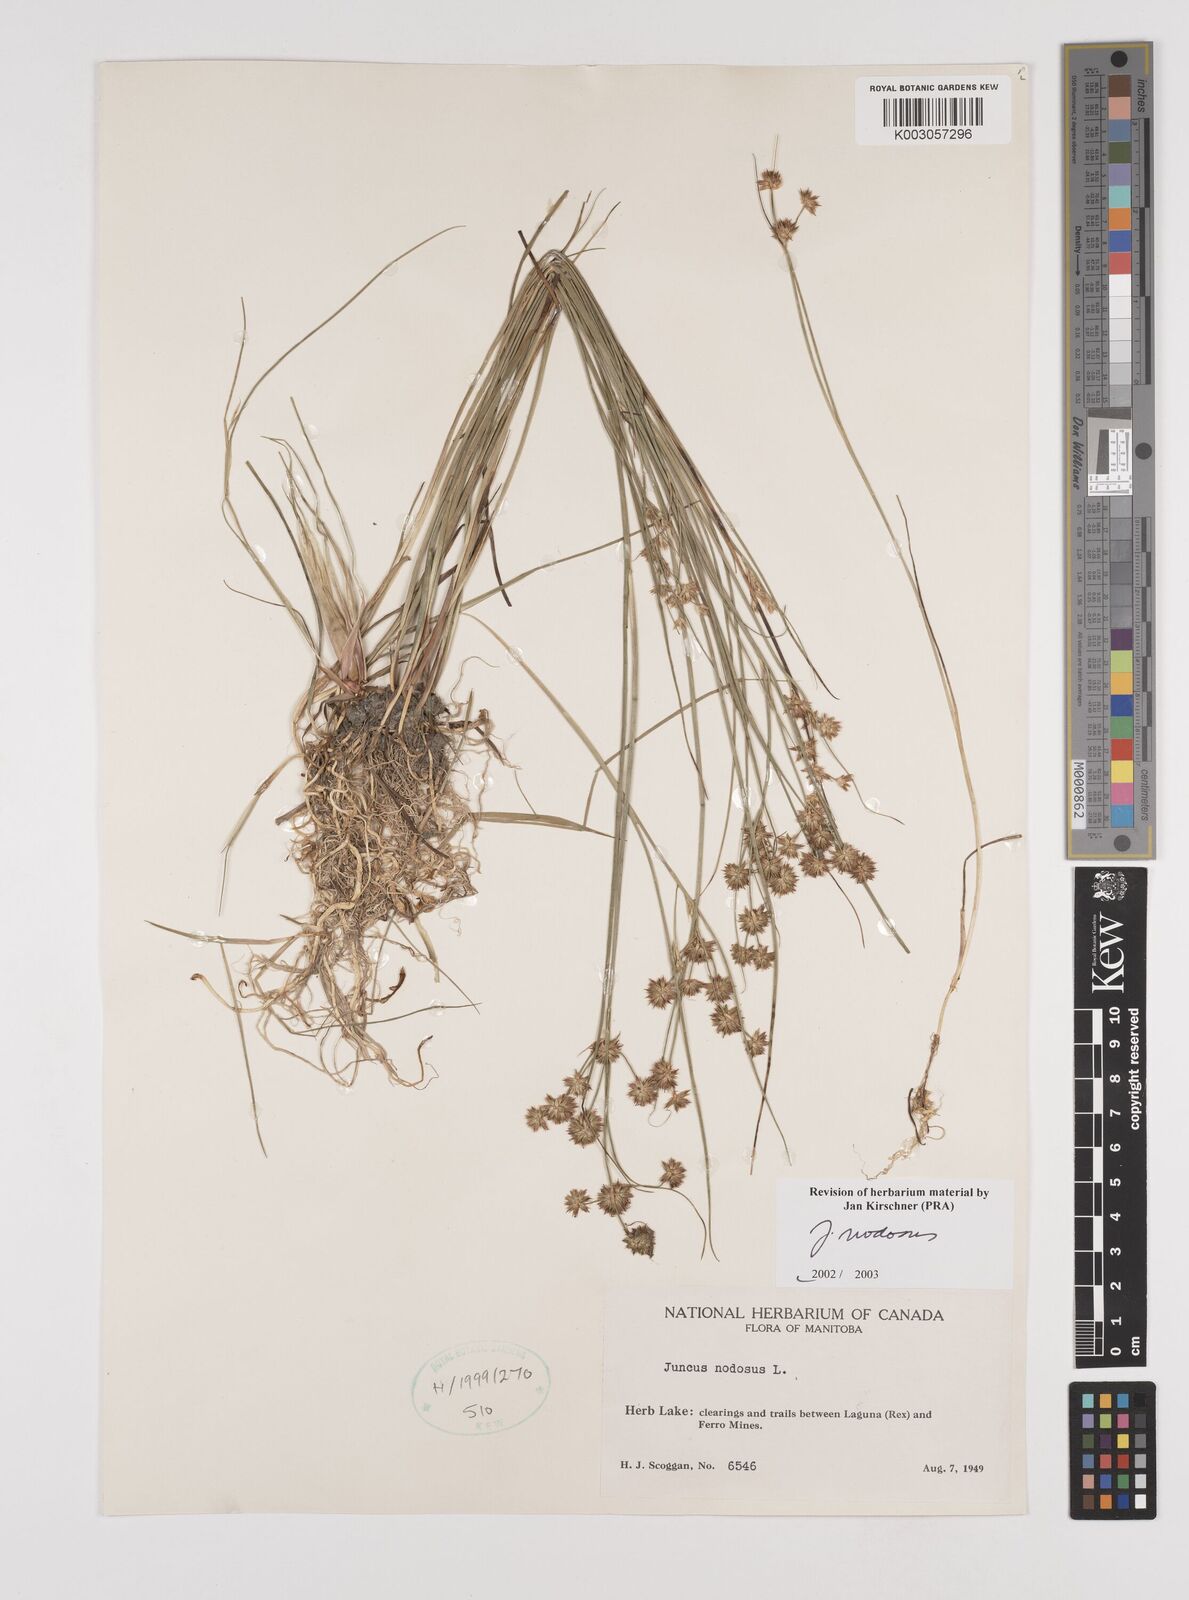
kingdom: Plantae
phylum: Tracheophyta
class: Liliopsida
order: Poales
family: Juncaceae
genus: Juncus
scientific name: Juncus nodosus
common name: Knotted rush
